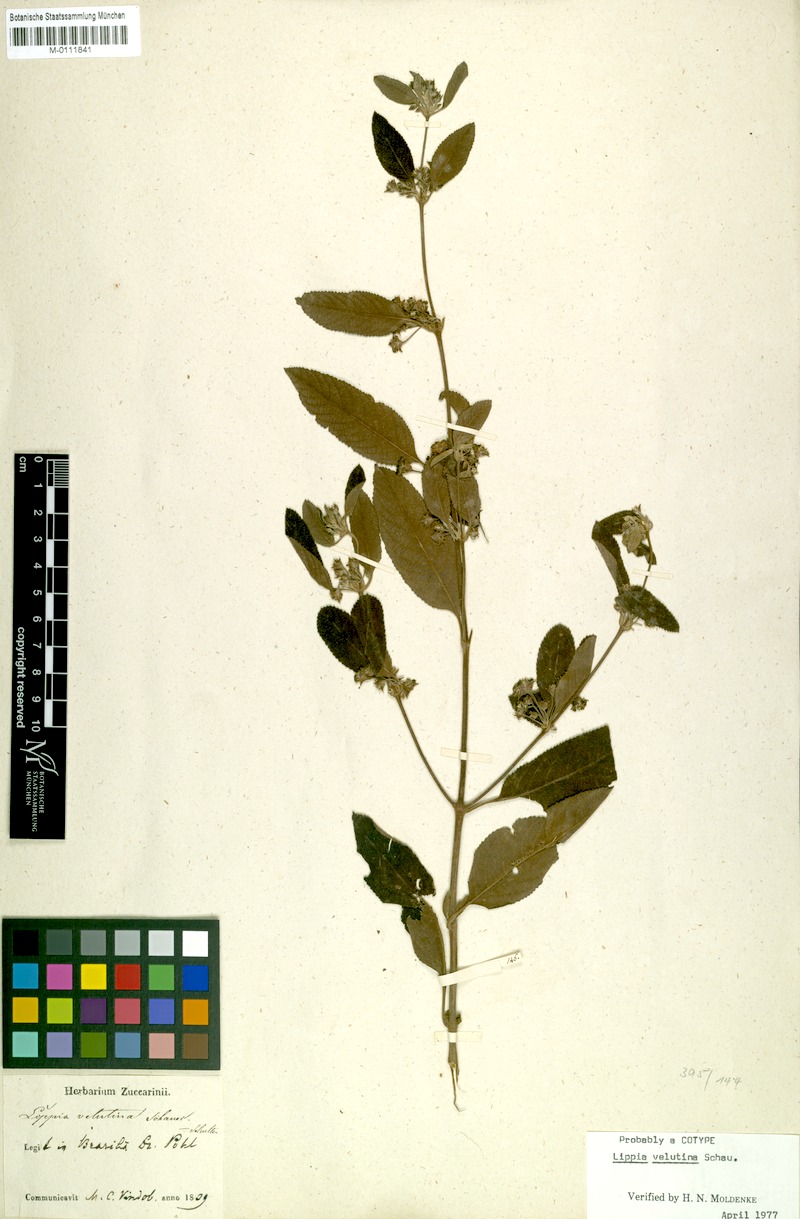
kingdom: Plantae
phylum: Tracheophyta
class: Magnoliopsida
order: Lamiales
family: Verbenaceae
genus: Lippia
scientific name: Lippia origanoides
